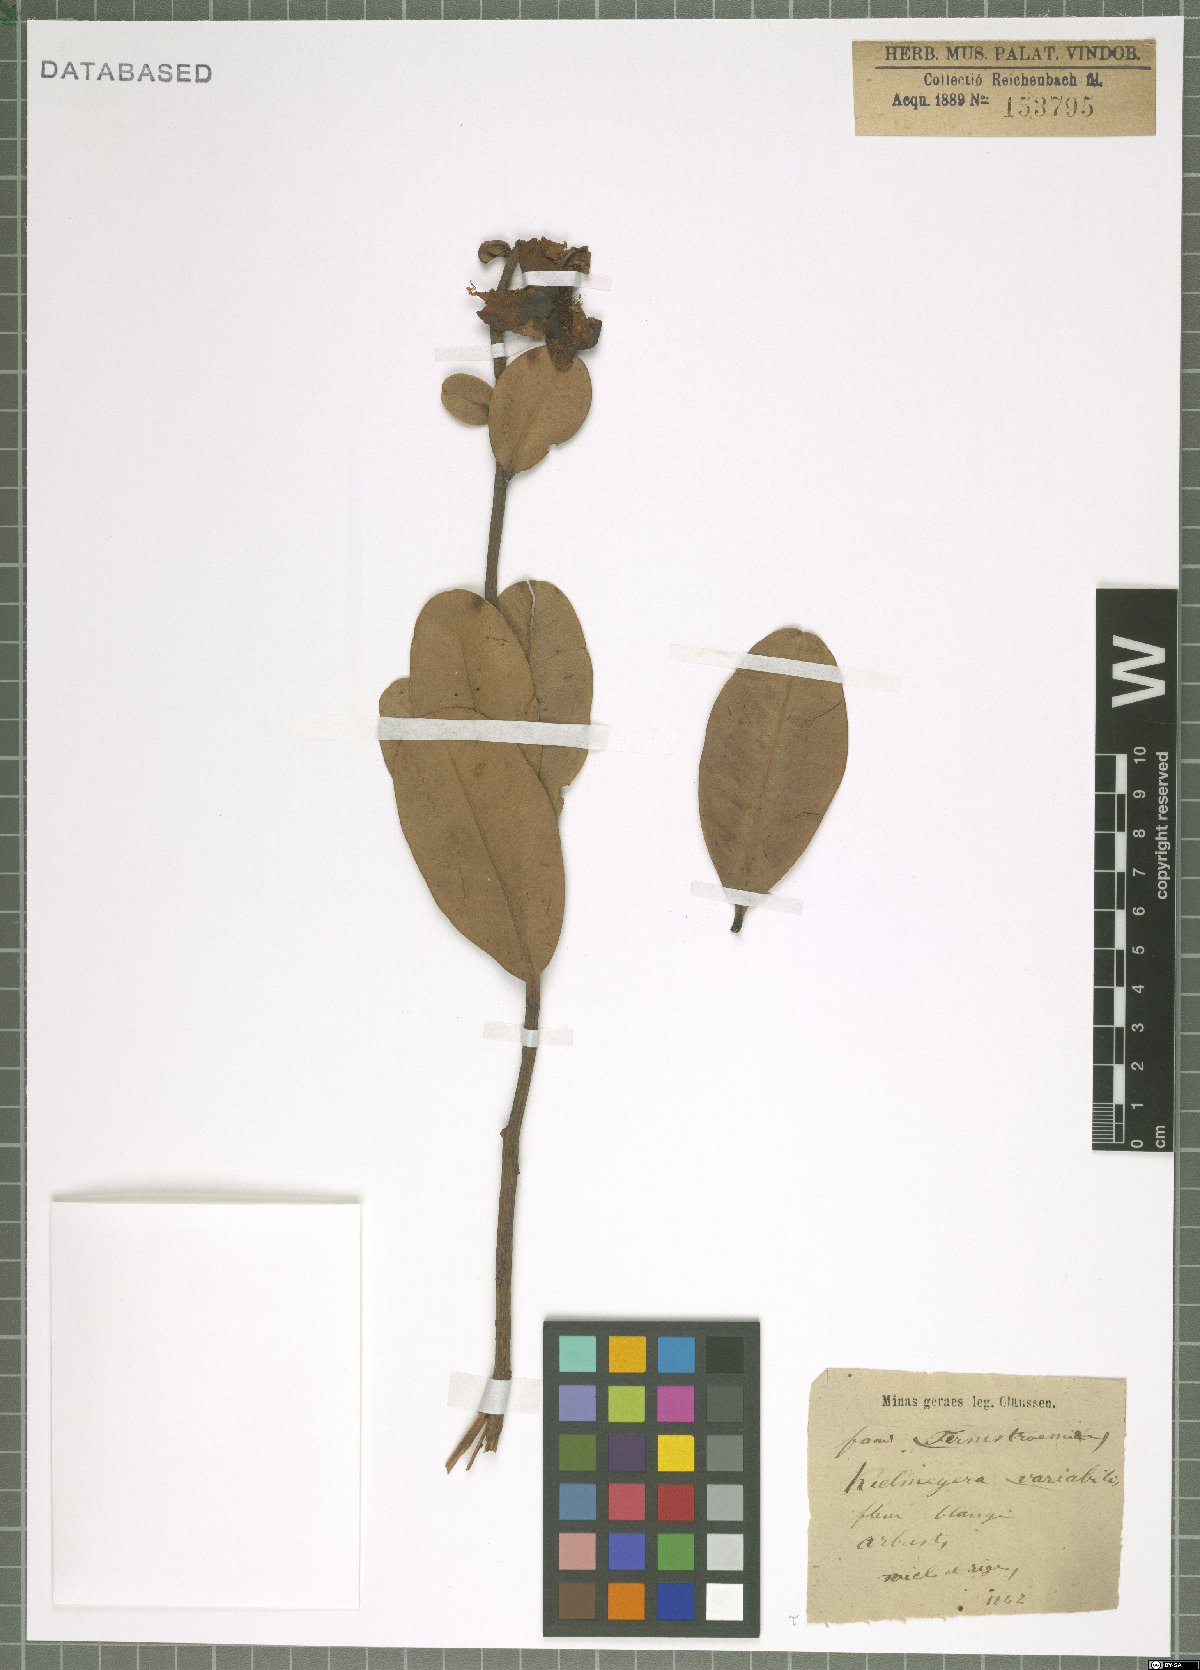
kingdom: Plantae
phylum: Tracheophyta
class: Magnoliopsida
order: Malpighiales
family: Calophyllaceae
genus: Kielmeyera
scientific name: Kielmeyera variabilis
